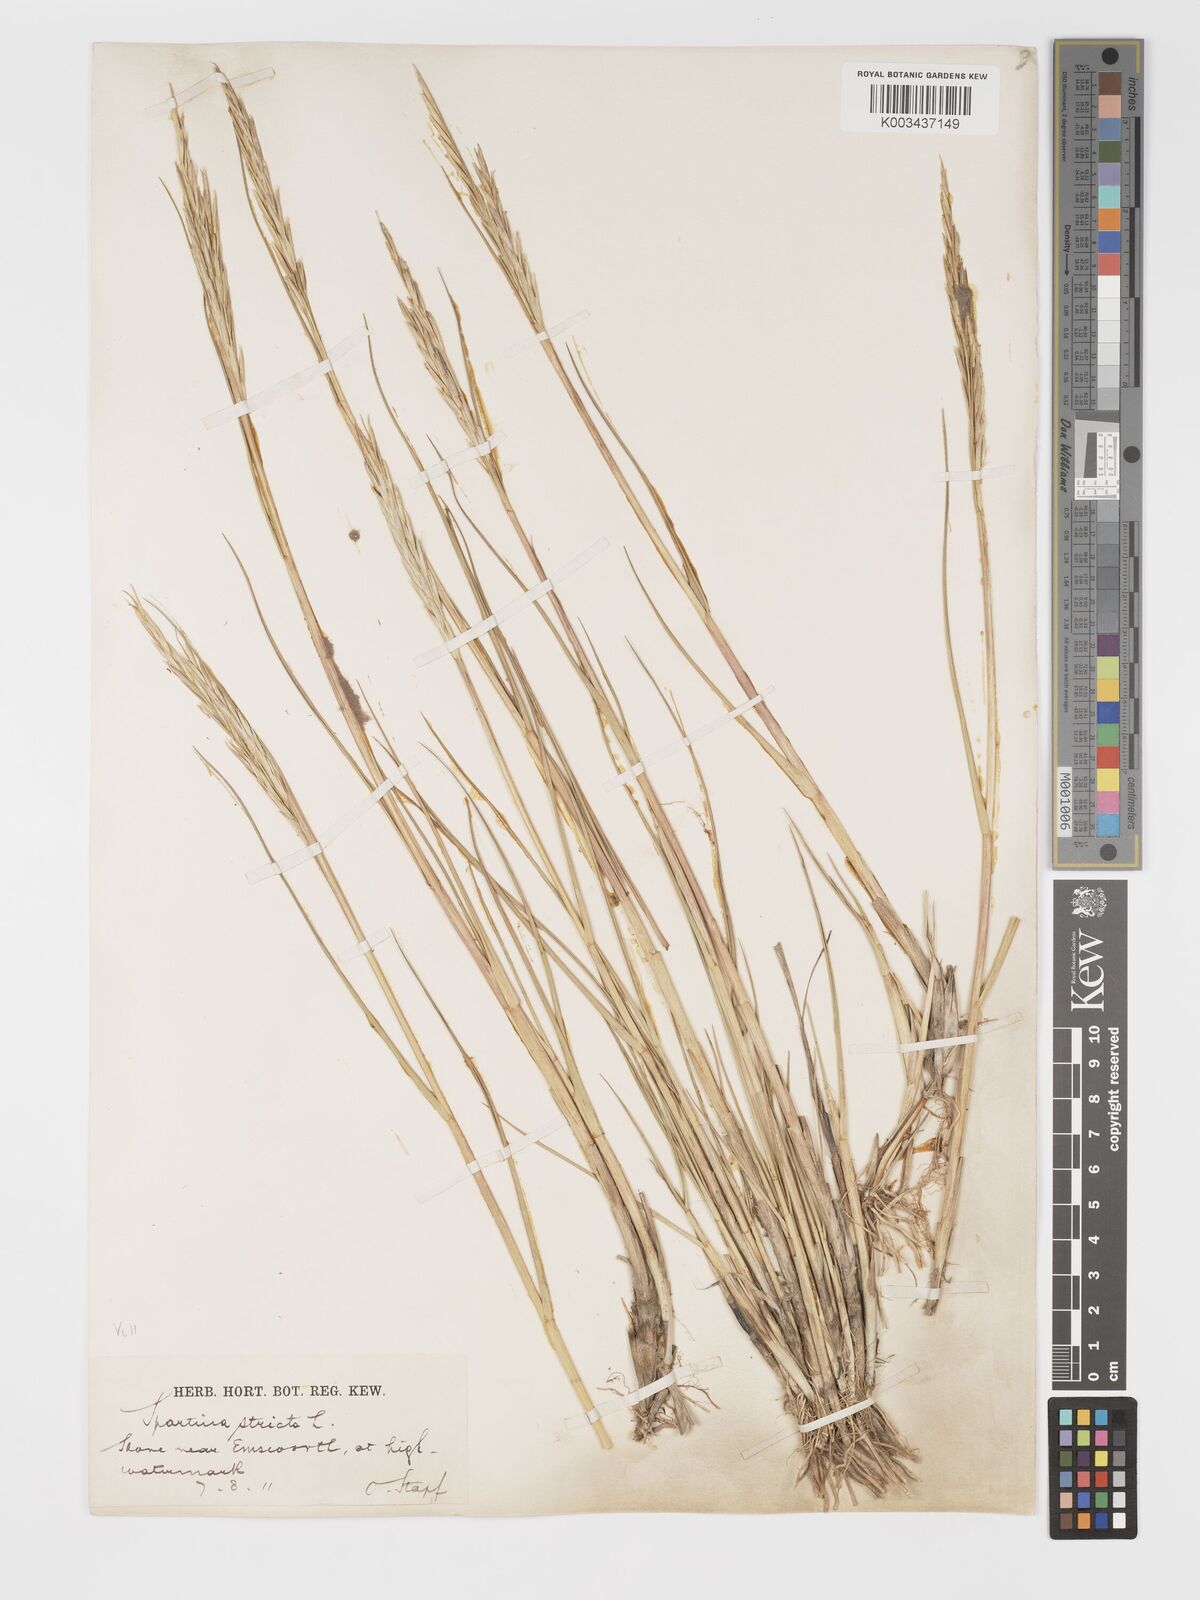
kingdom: Plantae
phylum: Tracheophyta
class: Liliopsida
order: Poales
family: Poaceae
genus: Sporobolus
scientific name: Sporobolus maritimus
